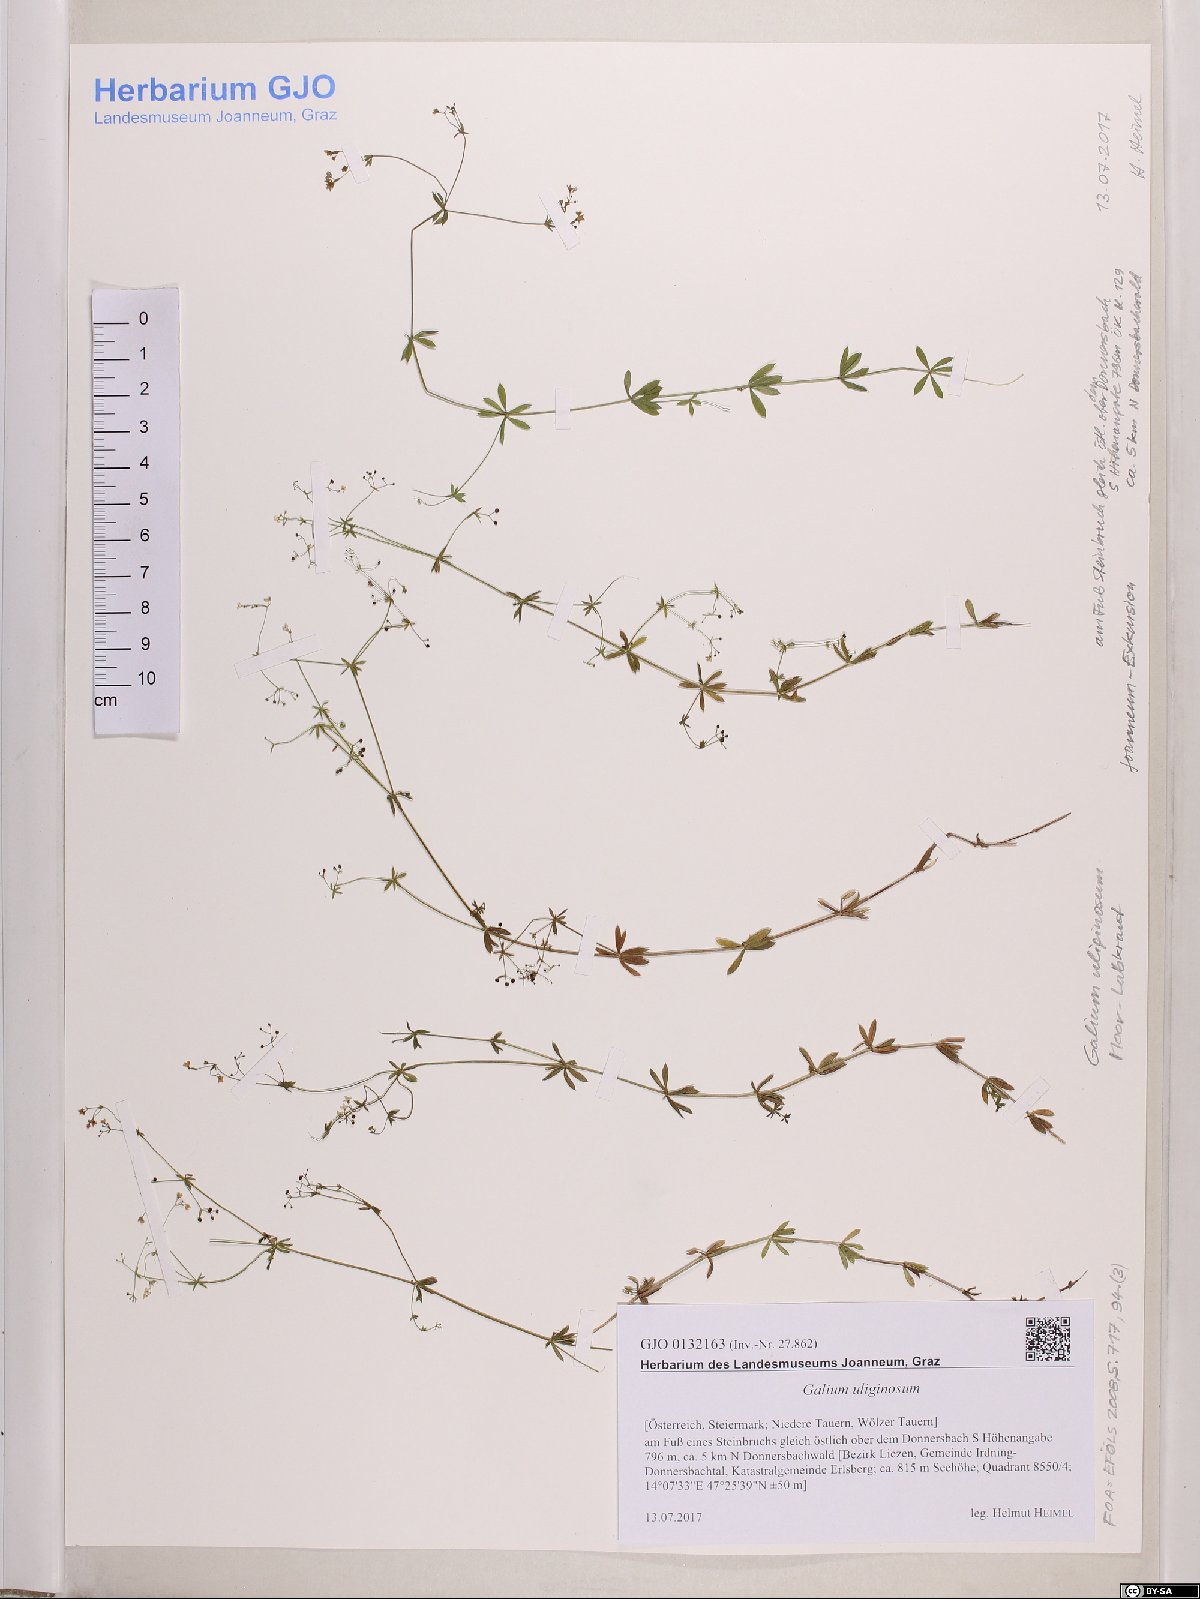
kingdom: Plantae
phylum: Tracheophyta
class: Magnoliopsida
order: Gentianales
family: Rubiaceae
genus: Galium
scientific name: Galium uliginosum
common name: Fen bedstraw
